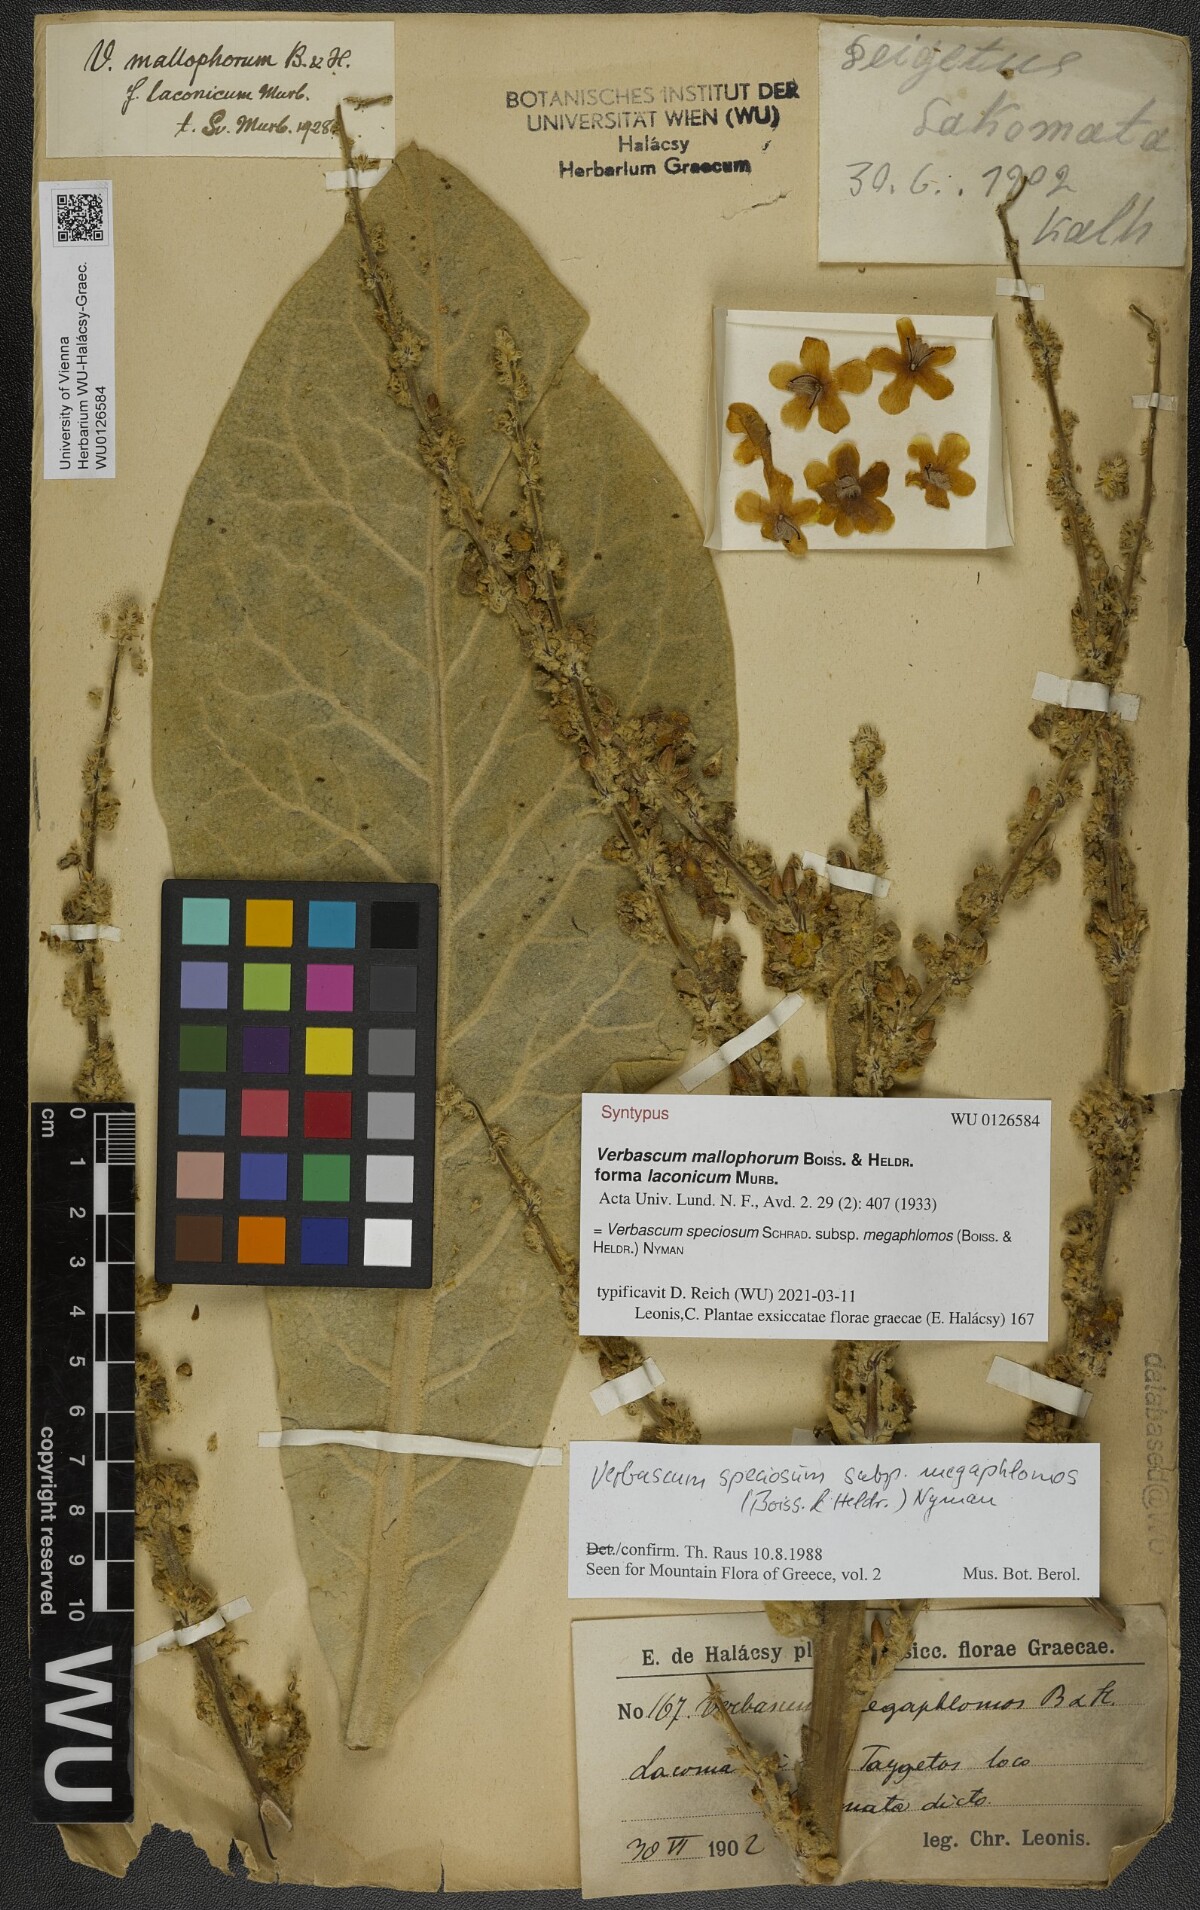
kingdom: Plantae
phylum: Tracheophyta
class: Magnoliopsida
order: Lamiales
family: Scrophulariaceae
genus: Verbascum
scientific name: Verbascum mallophorum
